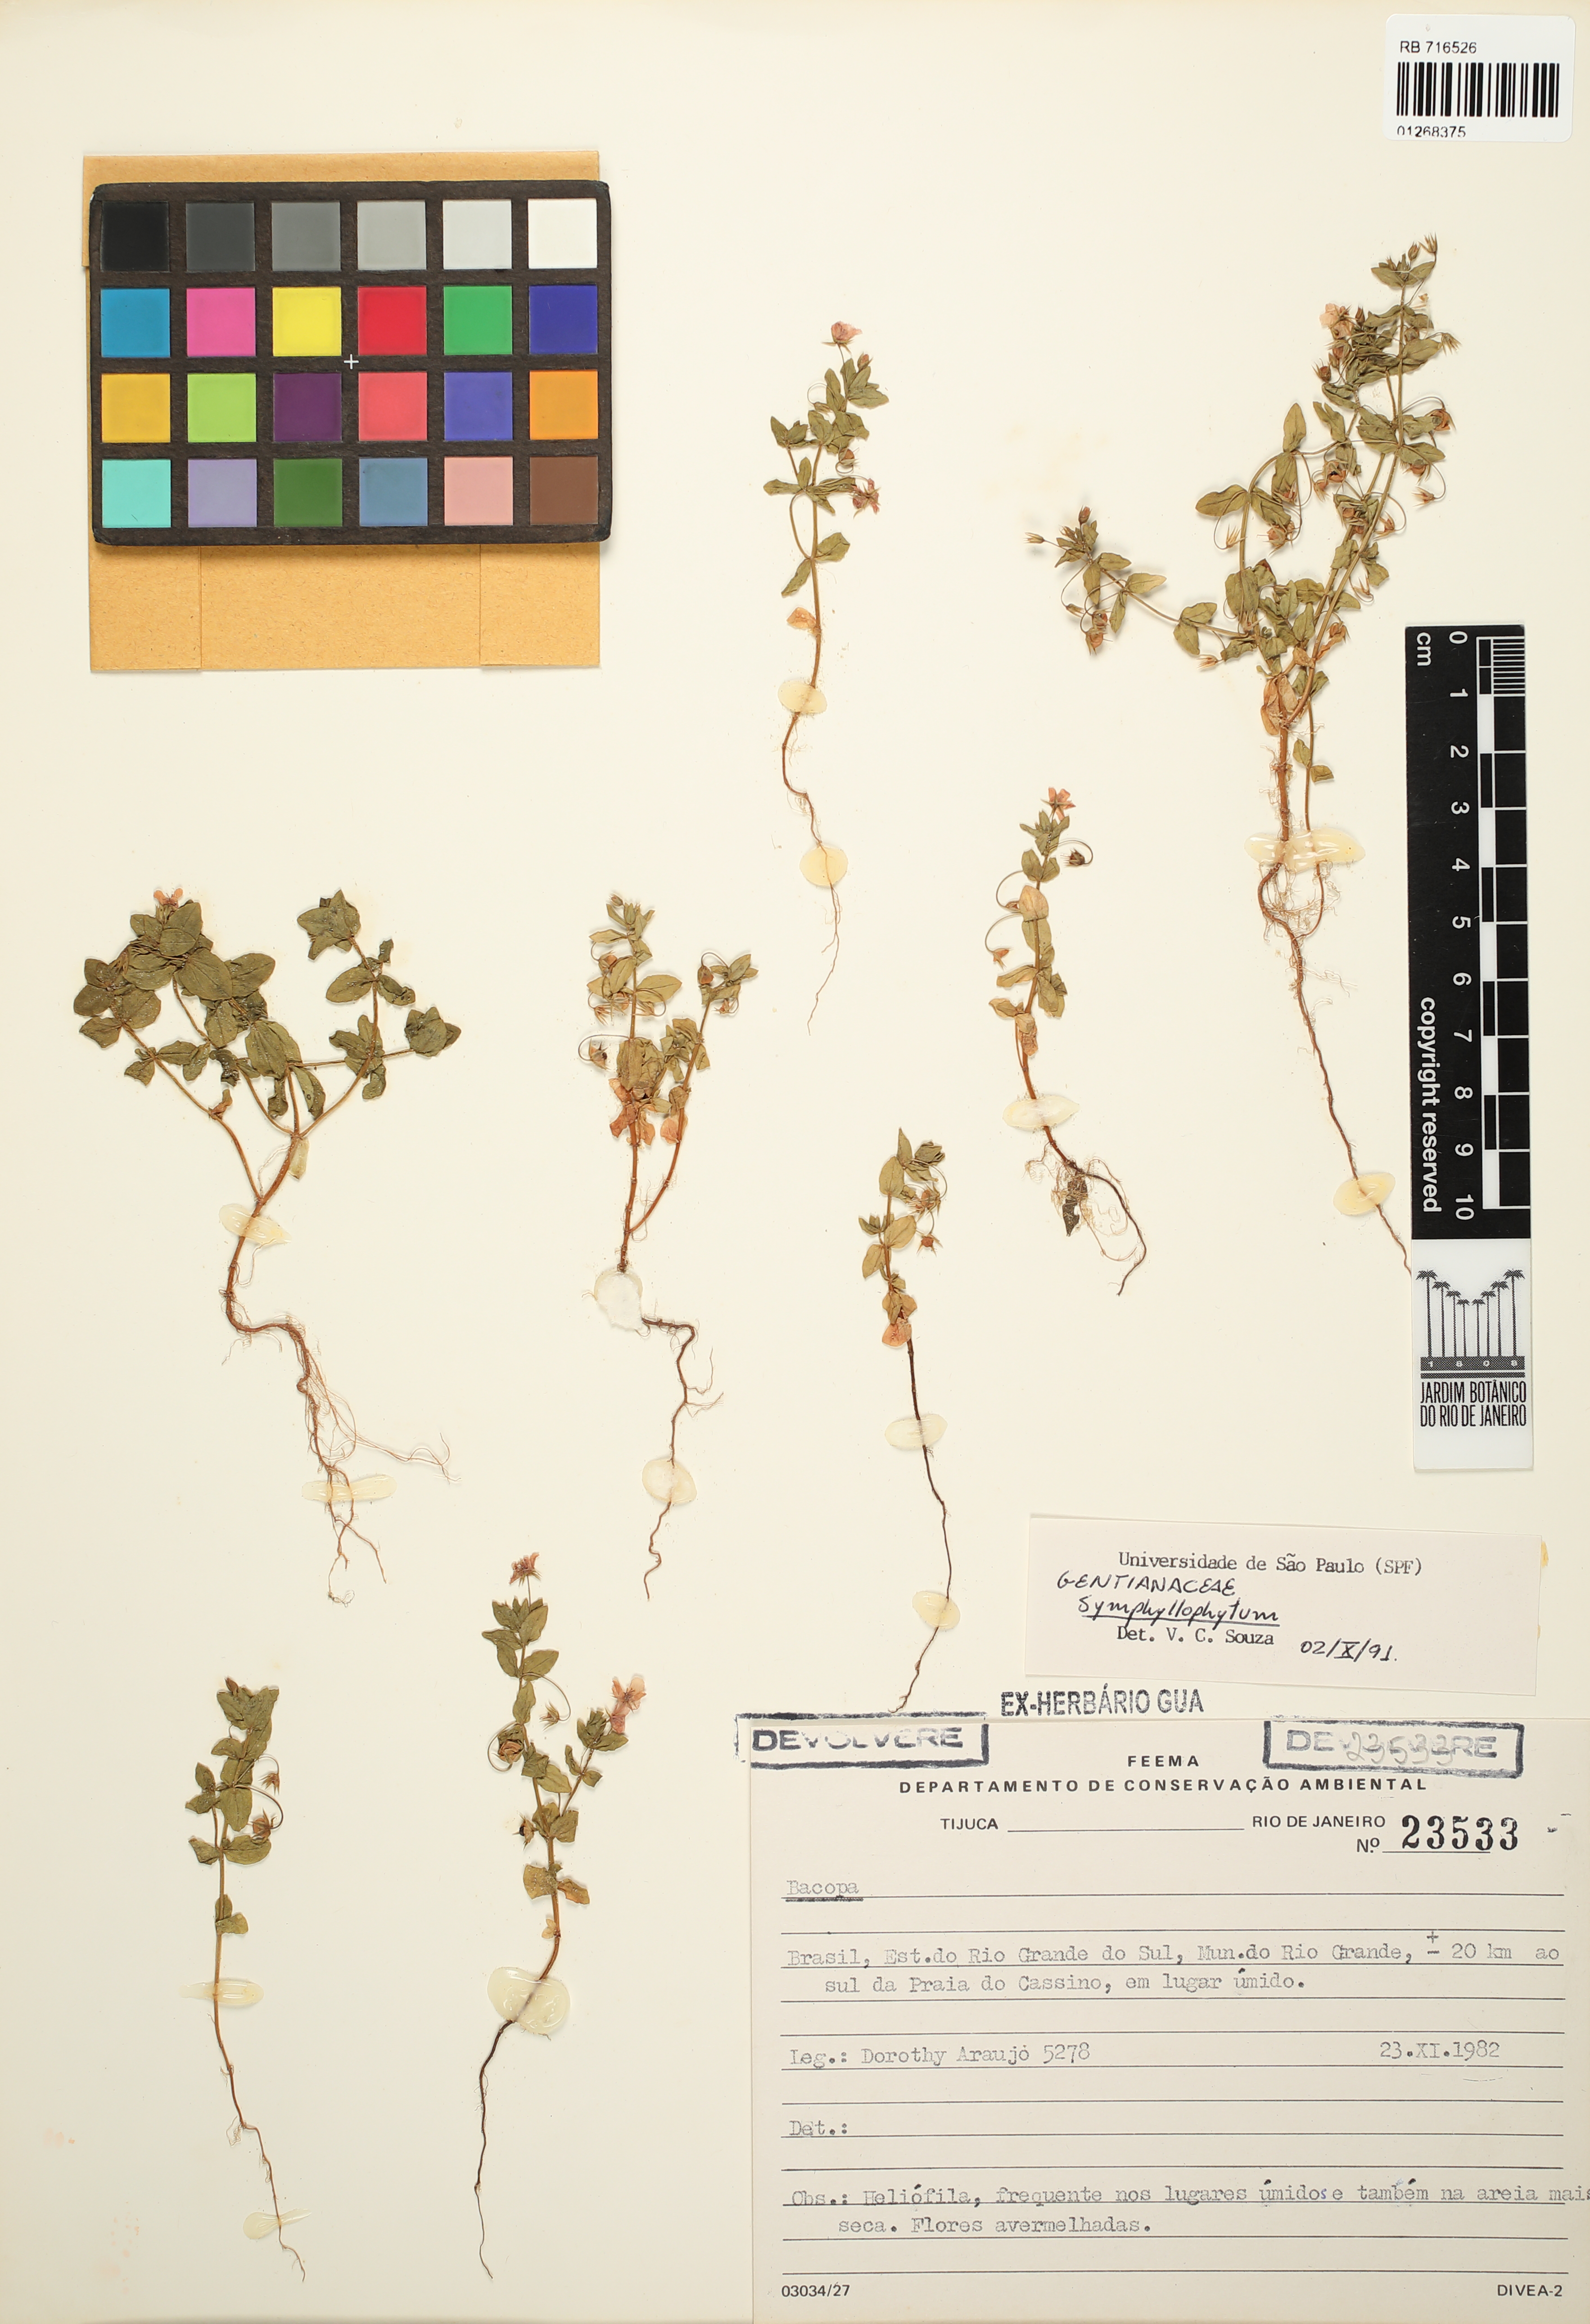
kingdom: Plantae
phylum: Tracheophyta
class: Magnoliopsida
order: Gentianales
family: Gentianaceae
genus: Symphyllophyton
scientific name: Symphyllophyton
